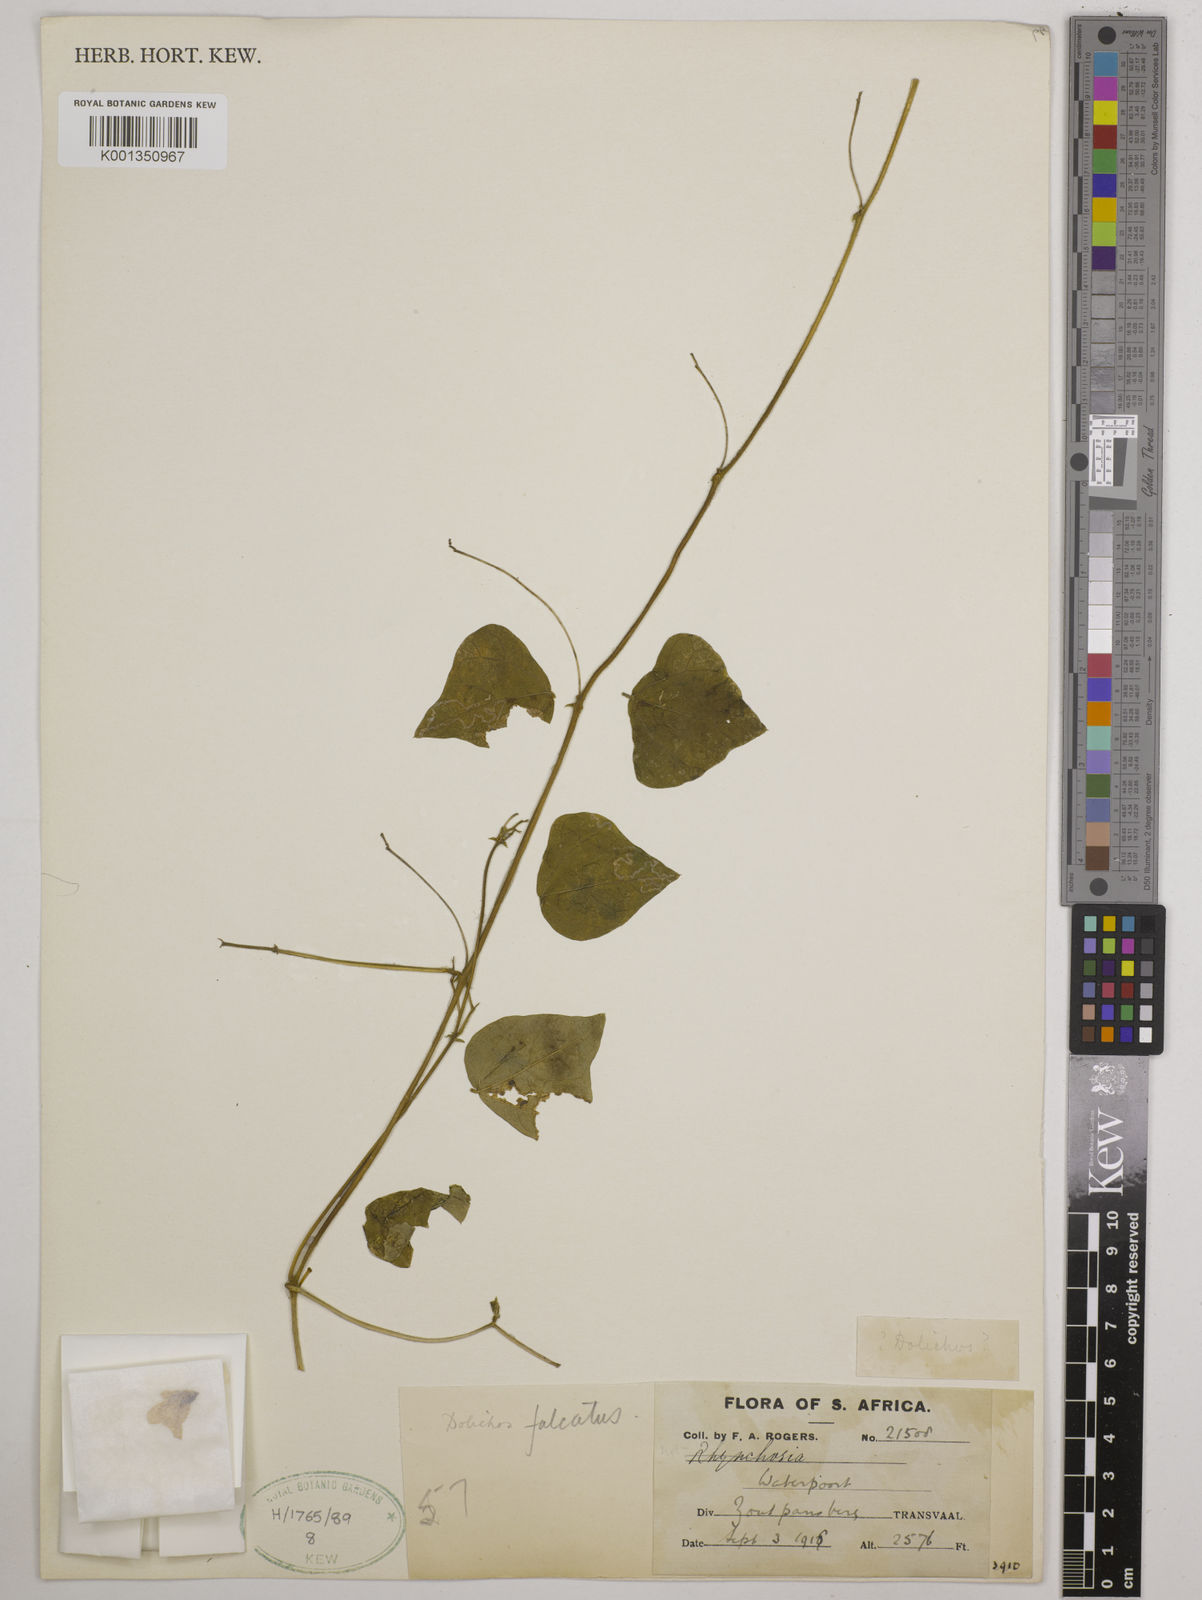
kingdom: Plantae
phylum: Tracheophyta
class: Magnoliopsida
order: Fabales
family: Fabaceae
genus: Dolichos
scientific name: Dolichos
